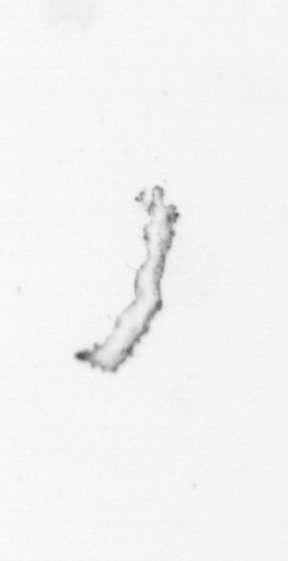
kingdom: Chromista
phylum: Ochrophyta
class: Bacillariophyceae
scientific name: Bacillariophyceae
